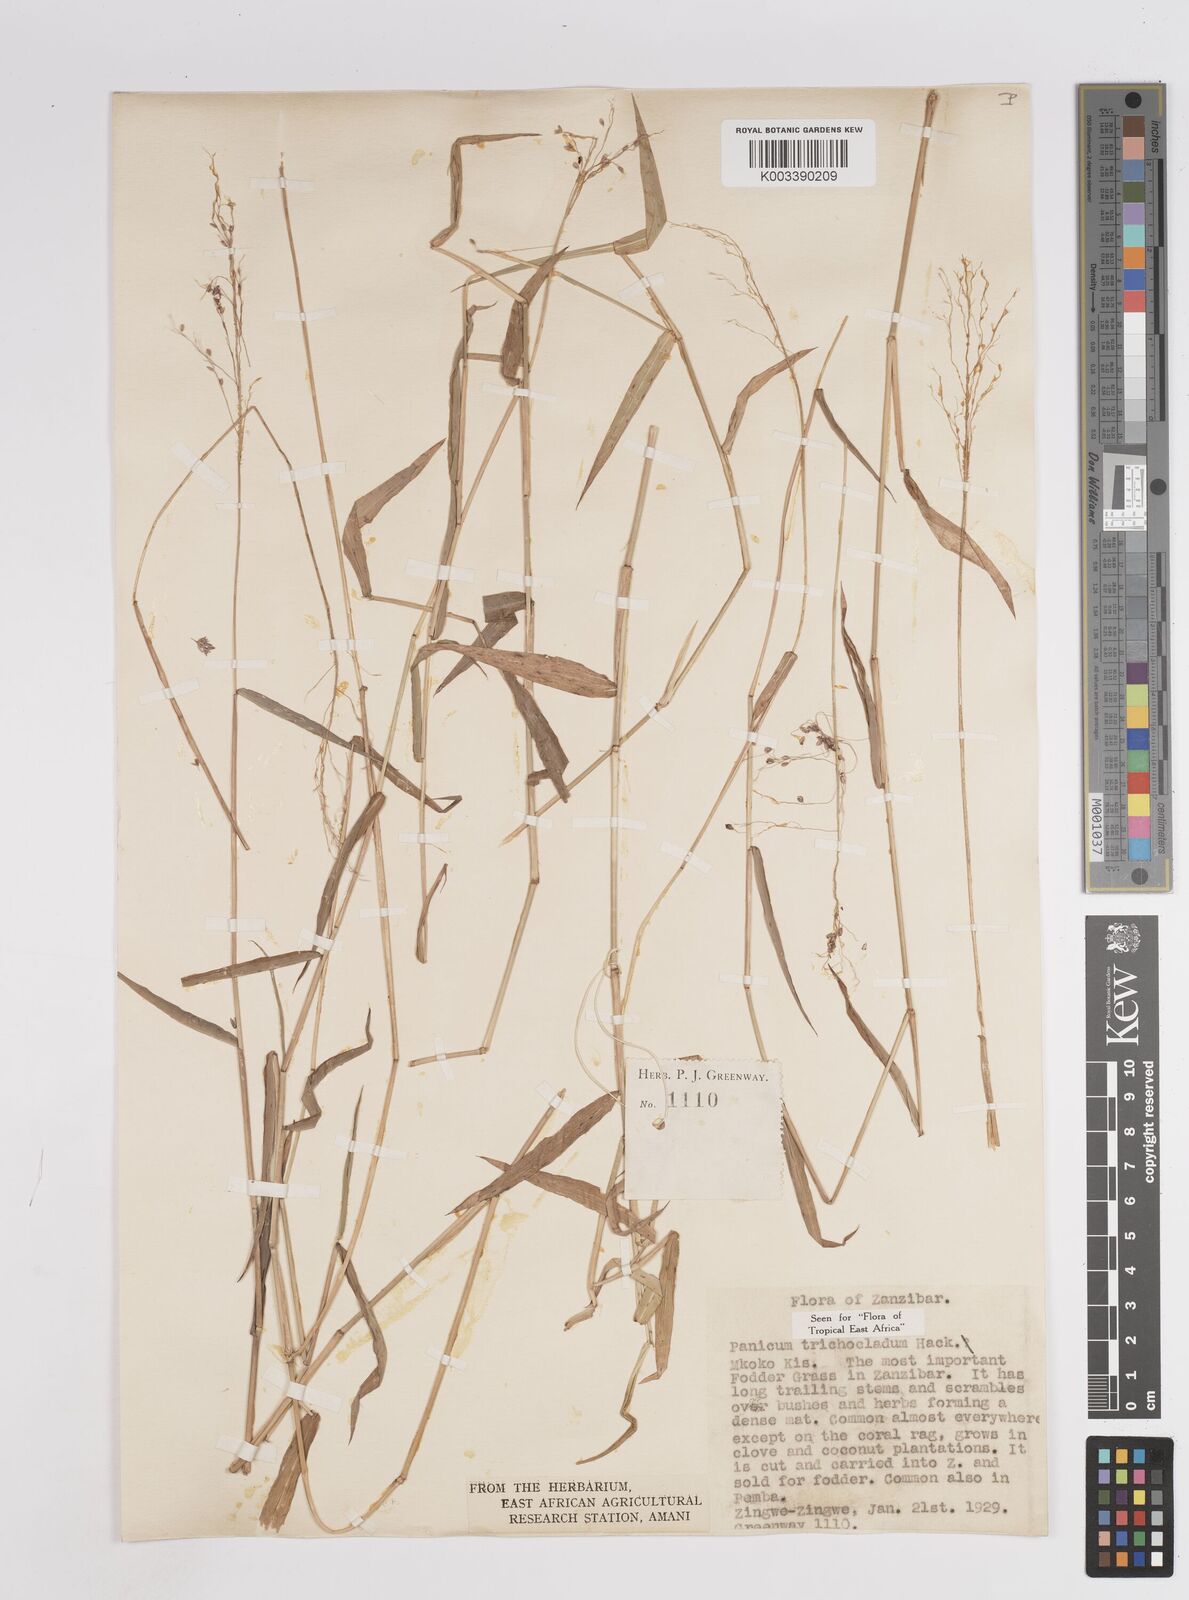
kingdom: Plantae
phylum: Tracheophyta
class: Liliopsida
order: Poales
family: Poaceae
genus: Panicum
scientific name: Panicum trichocladum
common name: Donkey grass
